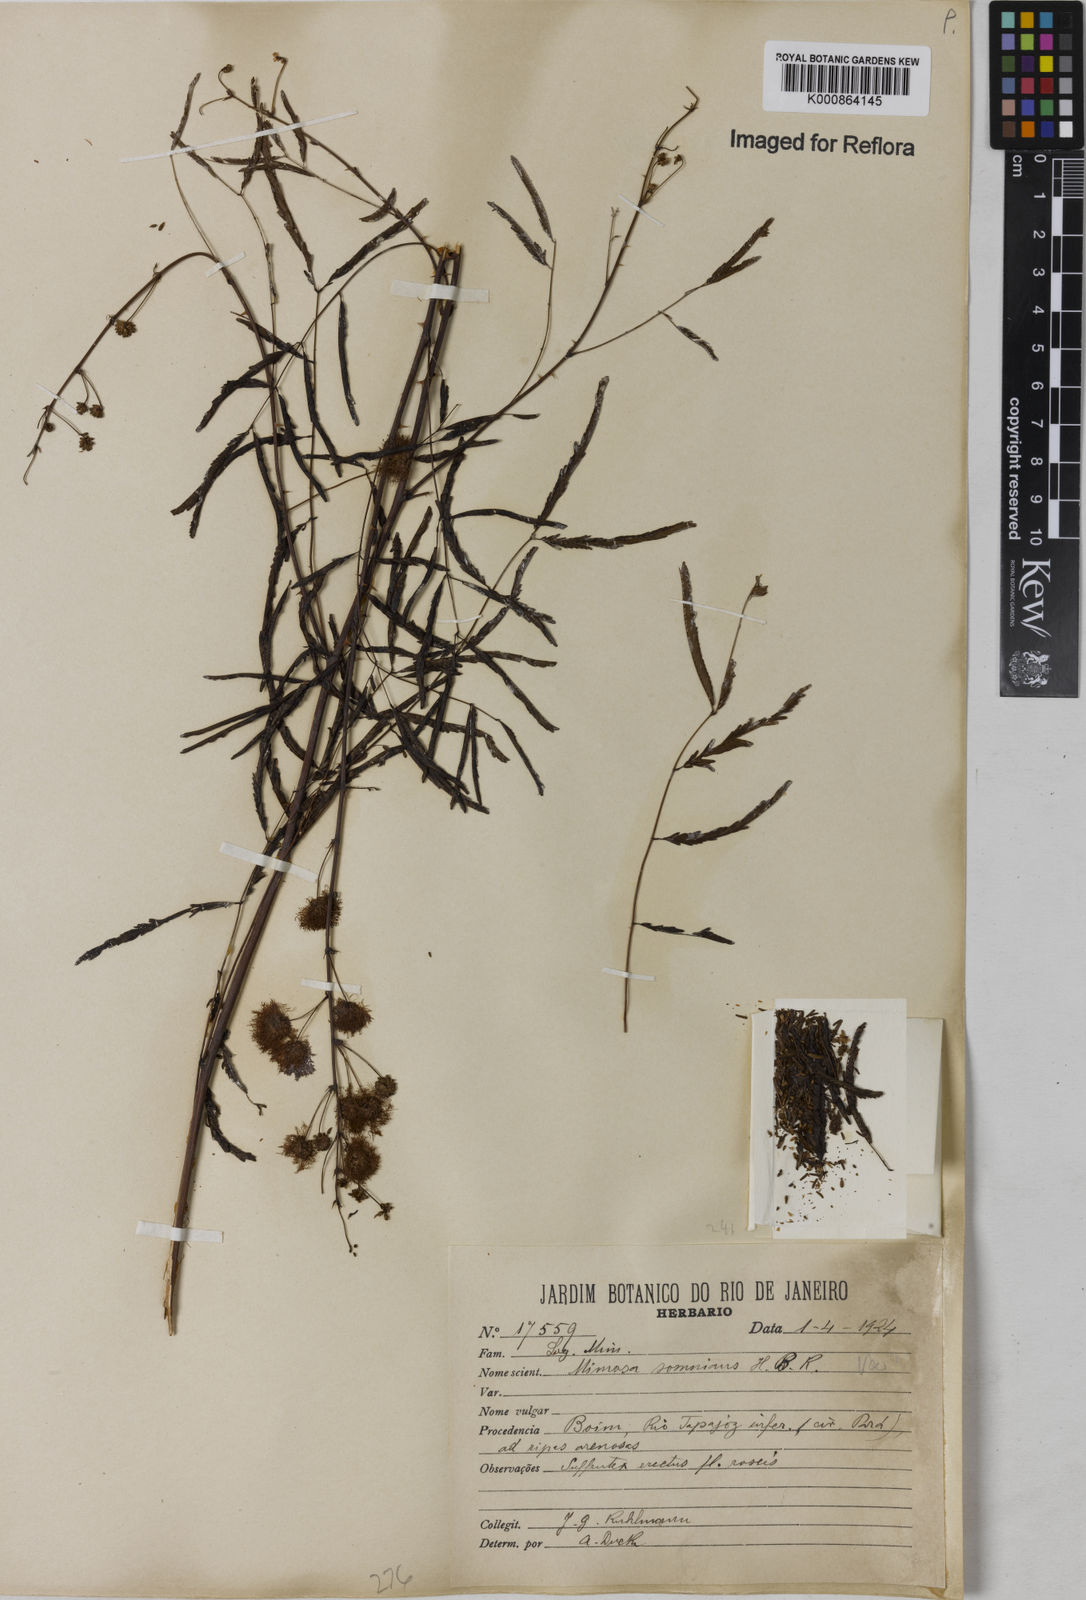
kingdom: Plantae
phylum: Tracheophyta
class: Magnoliopsida
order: Fabales
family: Fabaceae
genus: Mimosa
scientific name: Mimosa somnians
